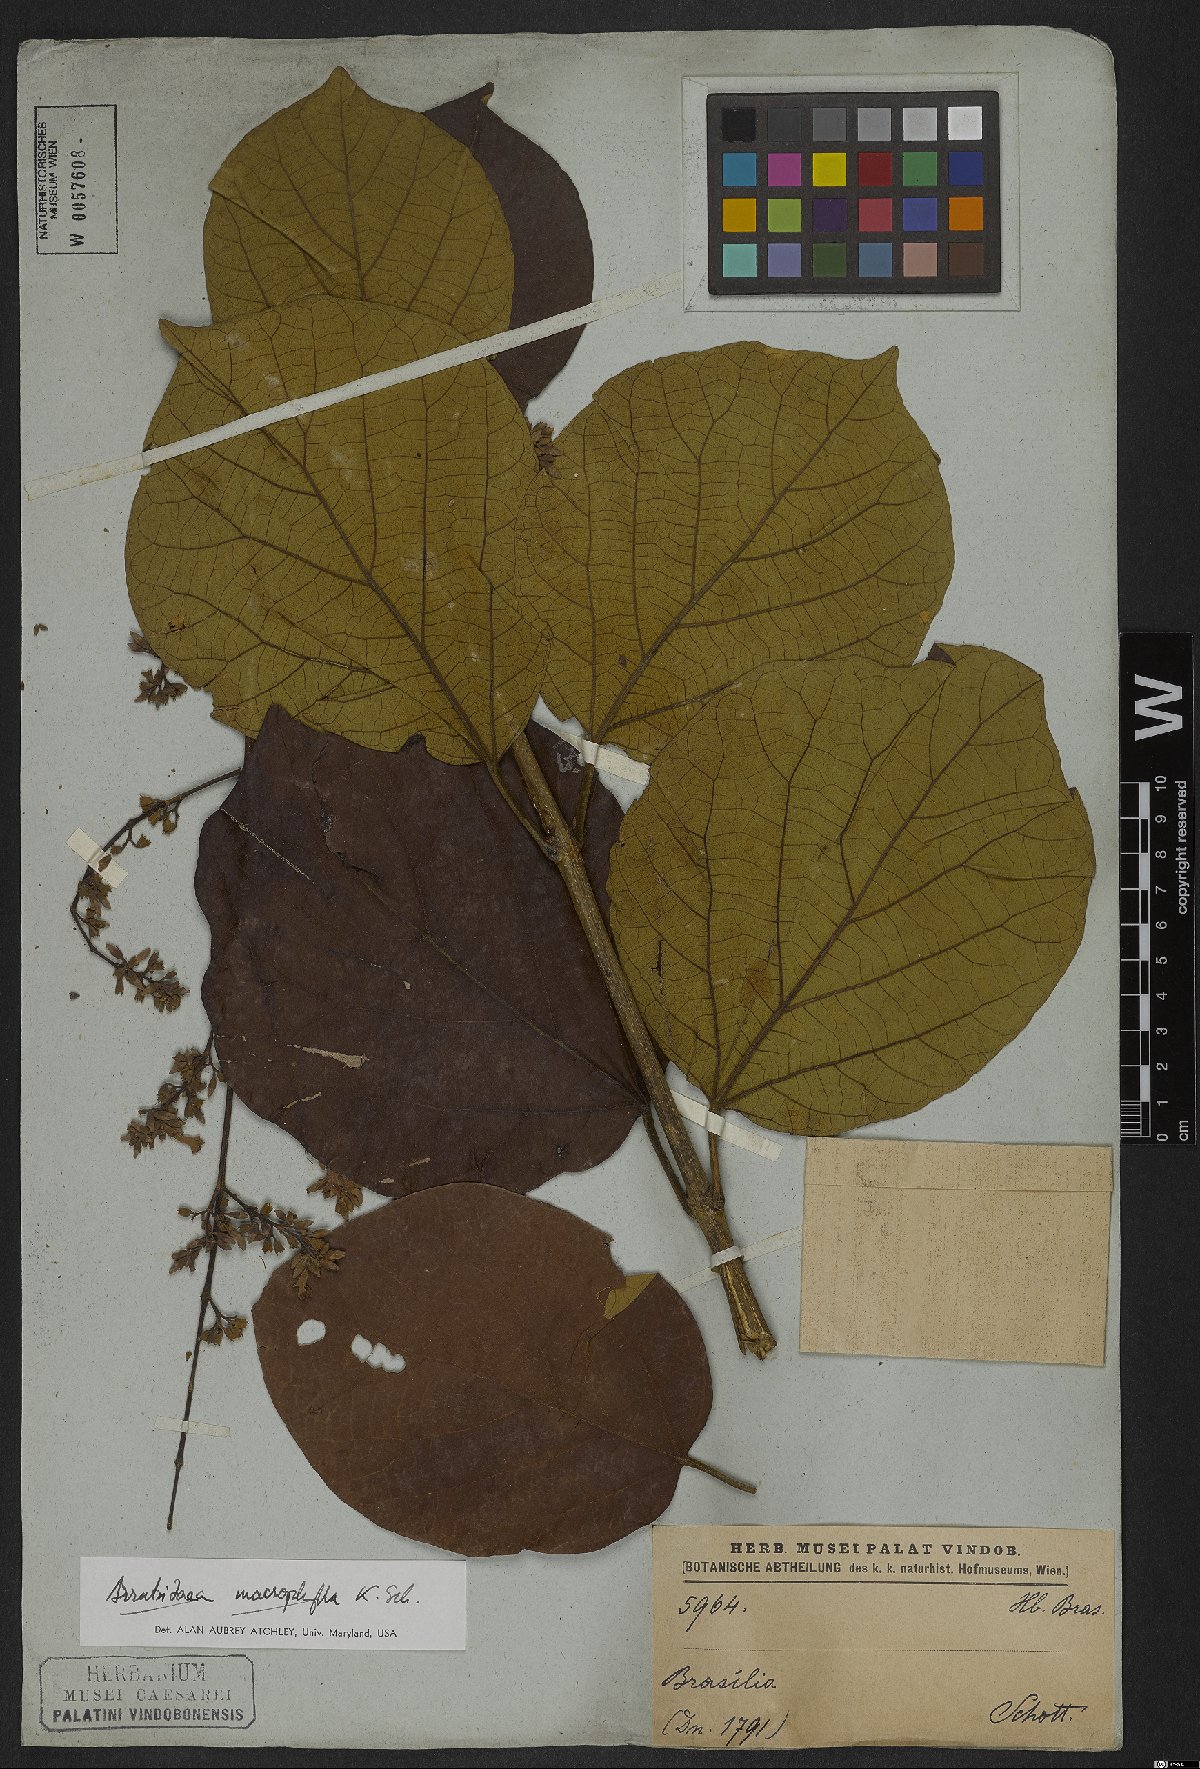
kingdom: Plantae
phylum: Tracheophyta
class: Magnoliopsida
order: Lamiales
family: Bignoniaceae
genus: Xylophragma
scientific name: Xylophragma platyphyllum
